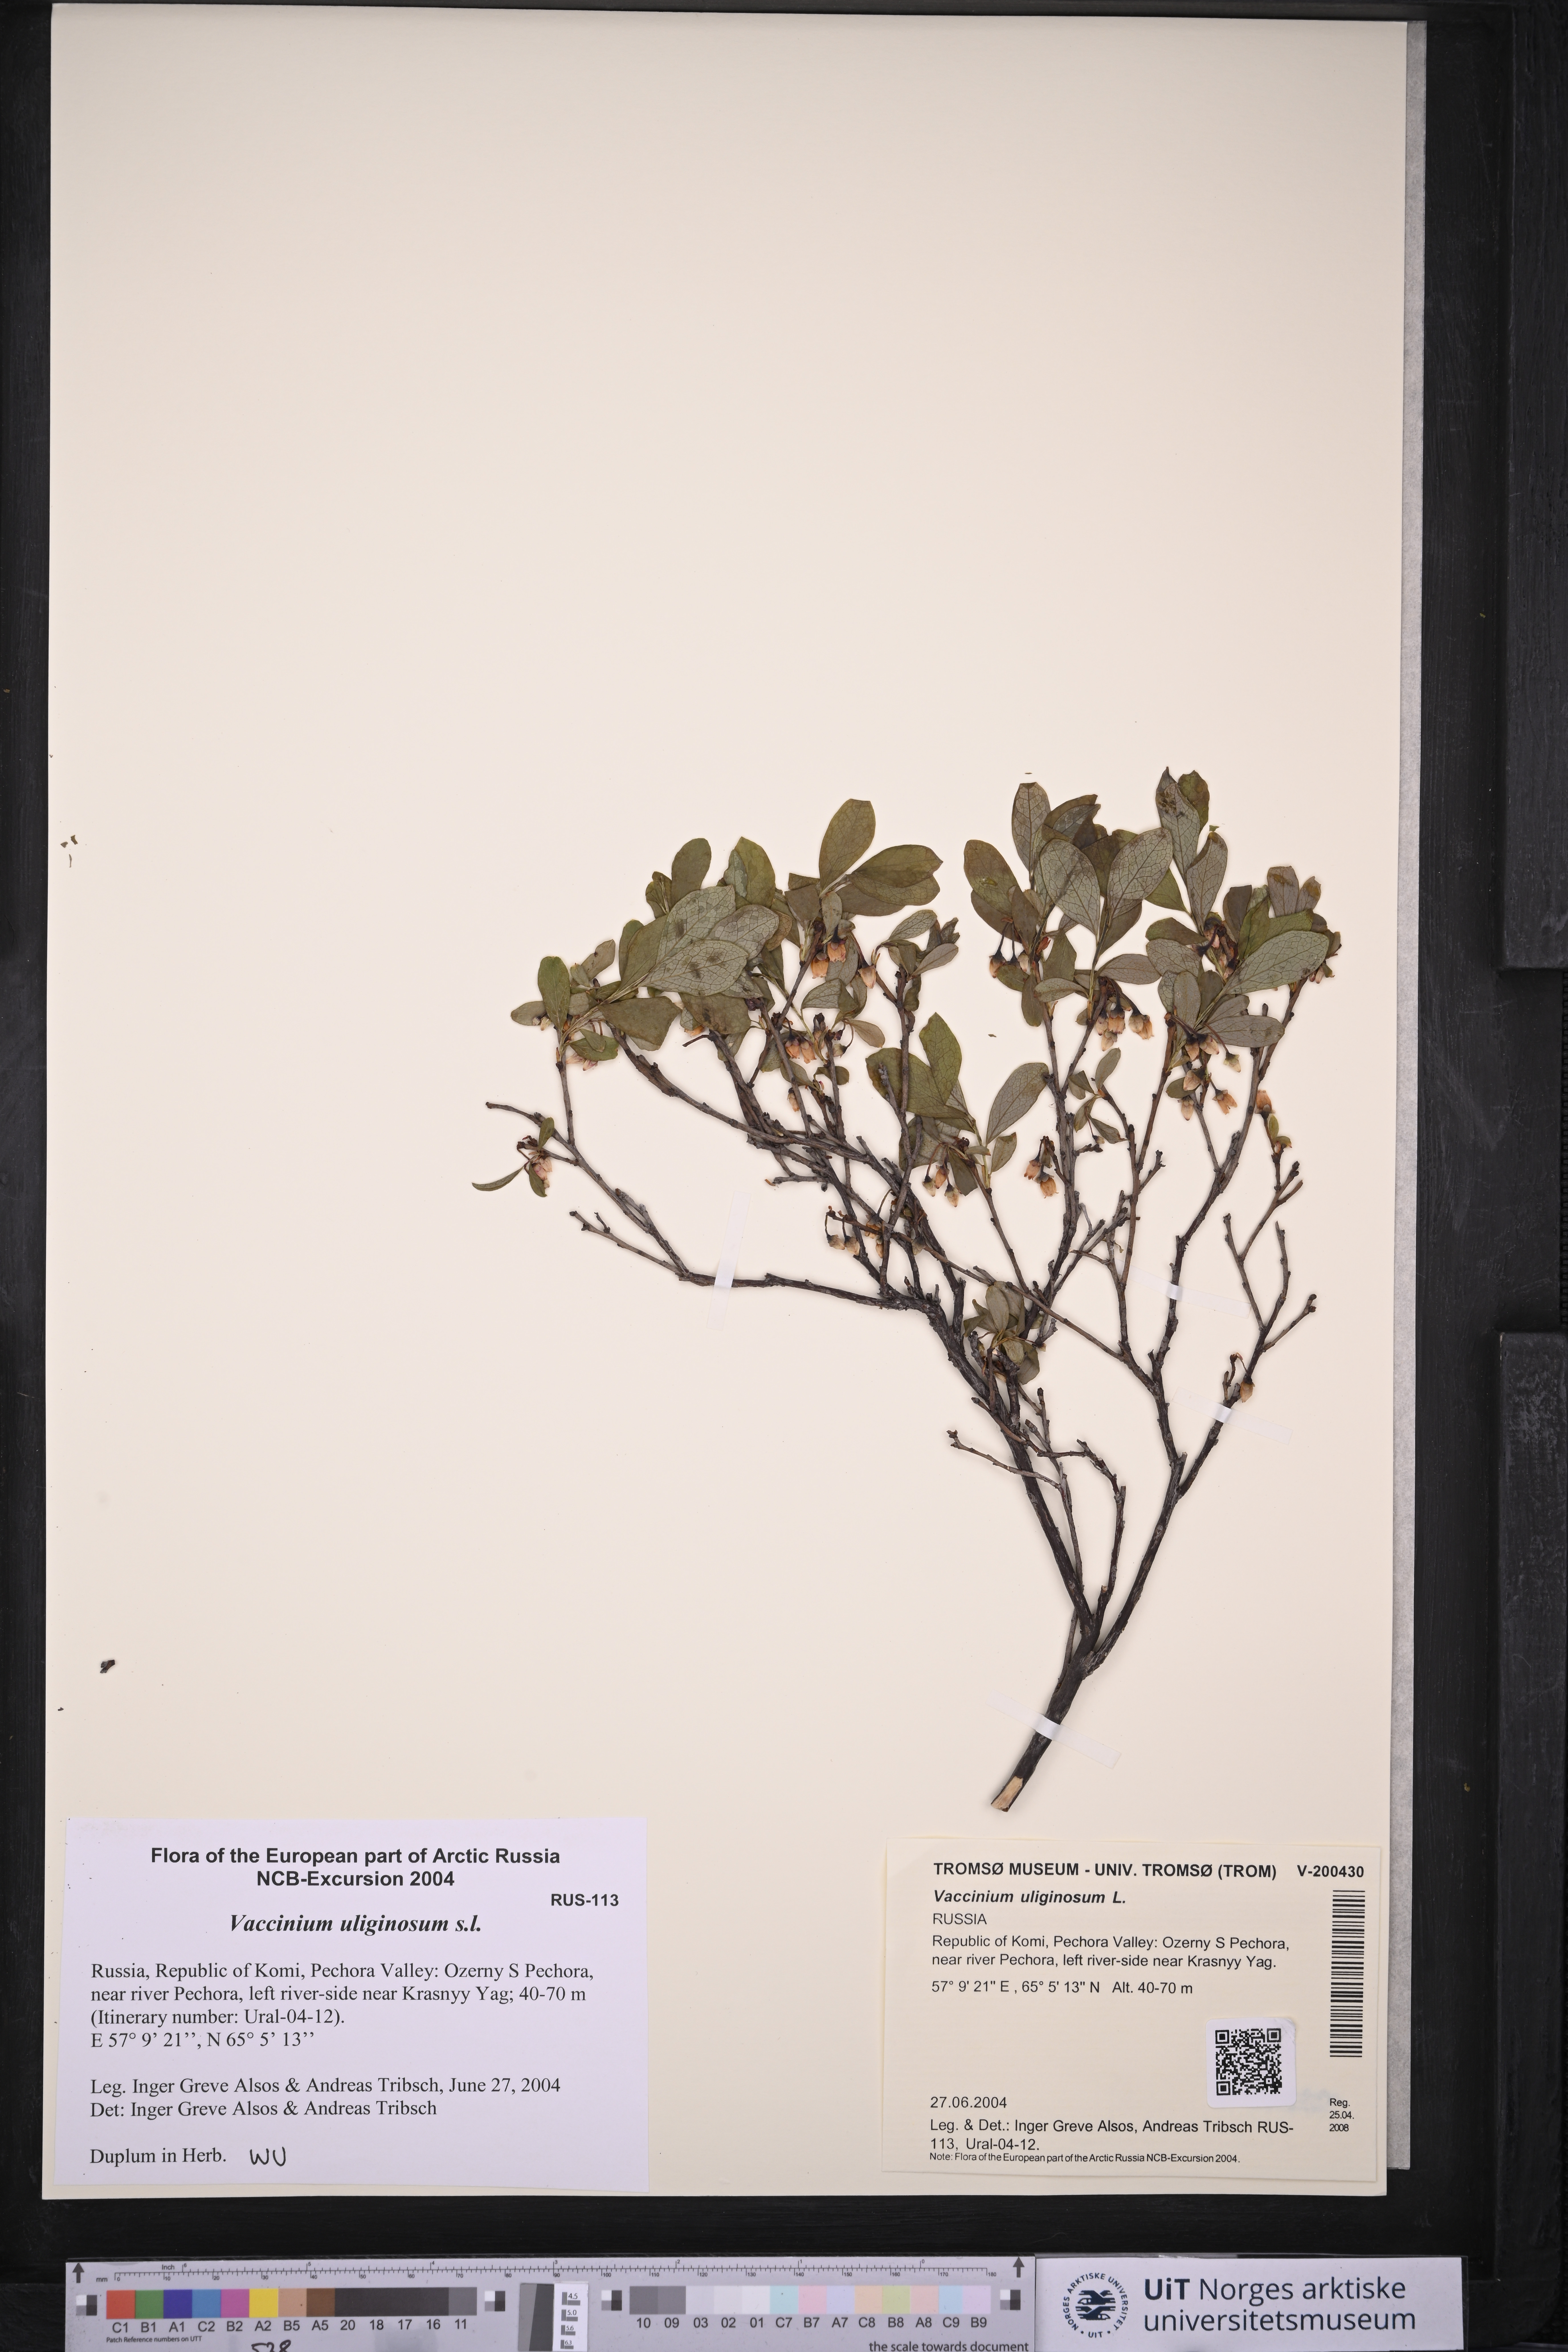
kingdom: Plantae
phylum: Tracheophyta
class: Magnoliopsida
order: Ericales
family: Ericaceae
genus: Vaccinium
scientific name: Vaccinium uliginosum
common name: Bog bilberry
